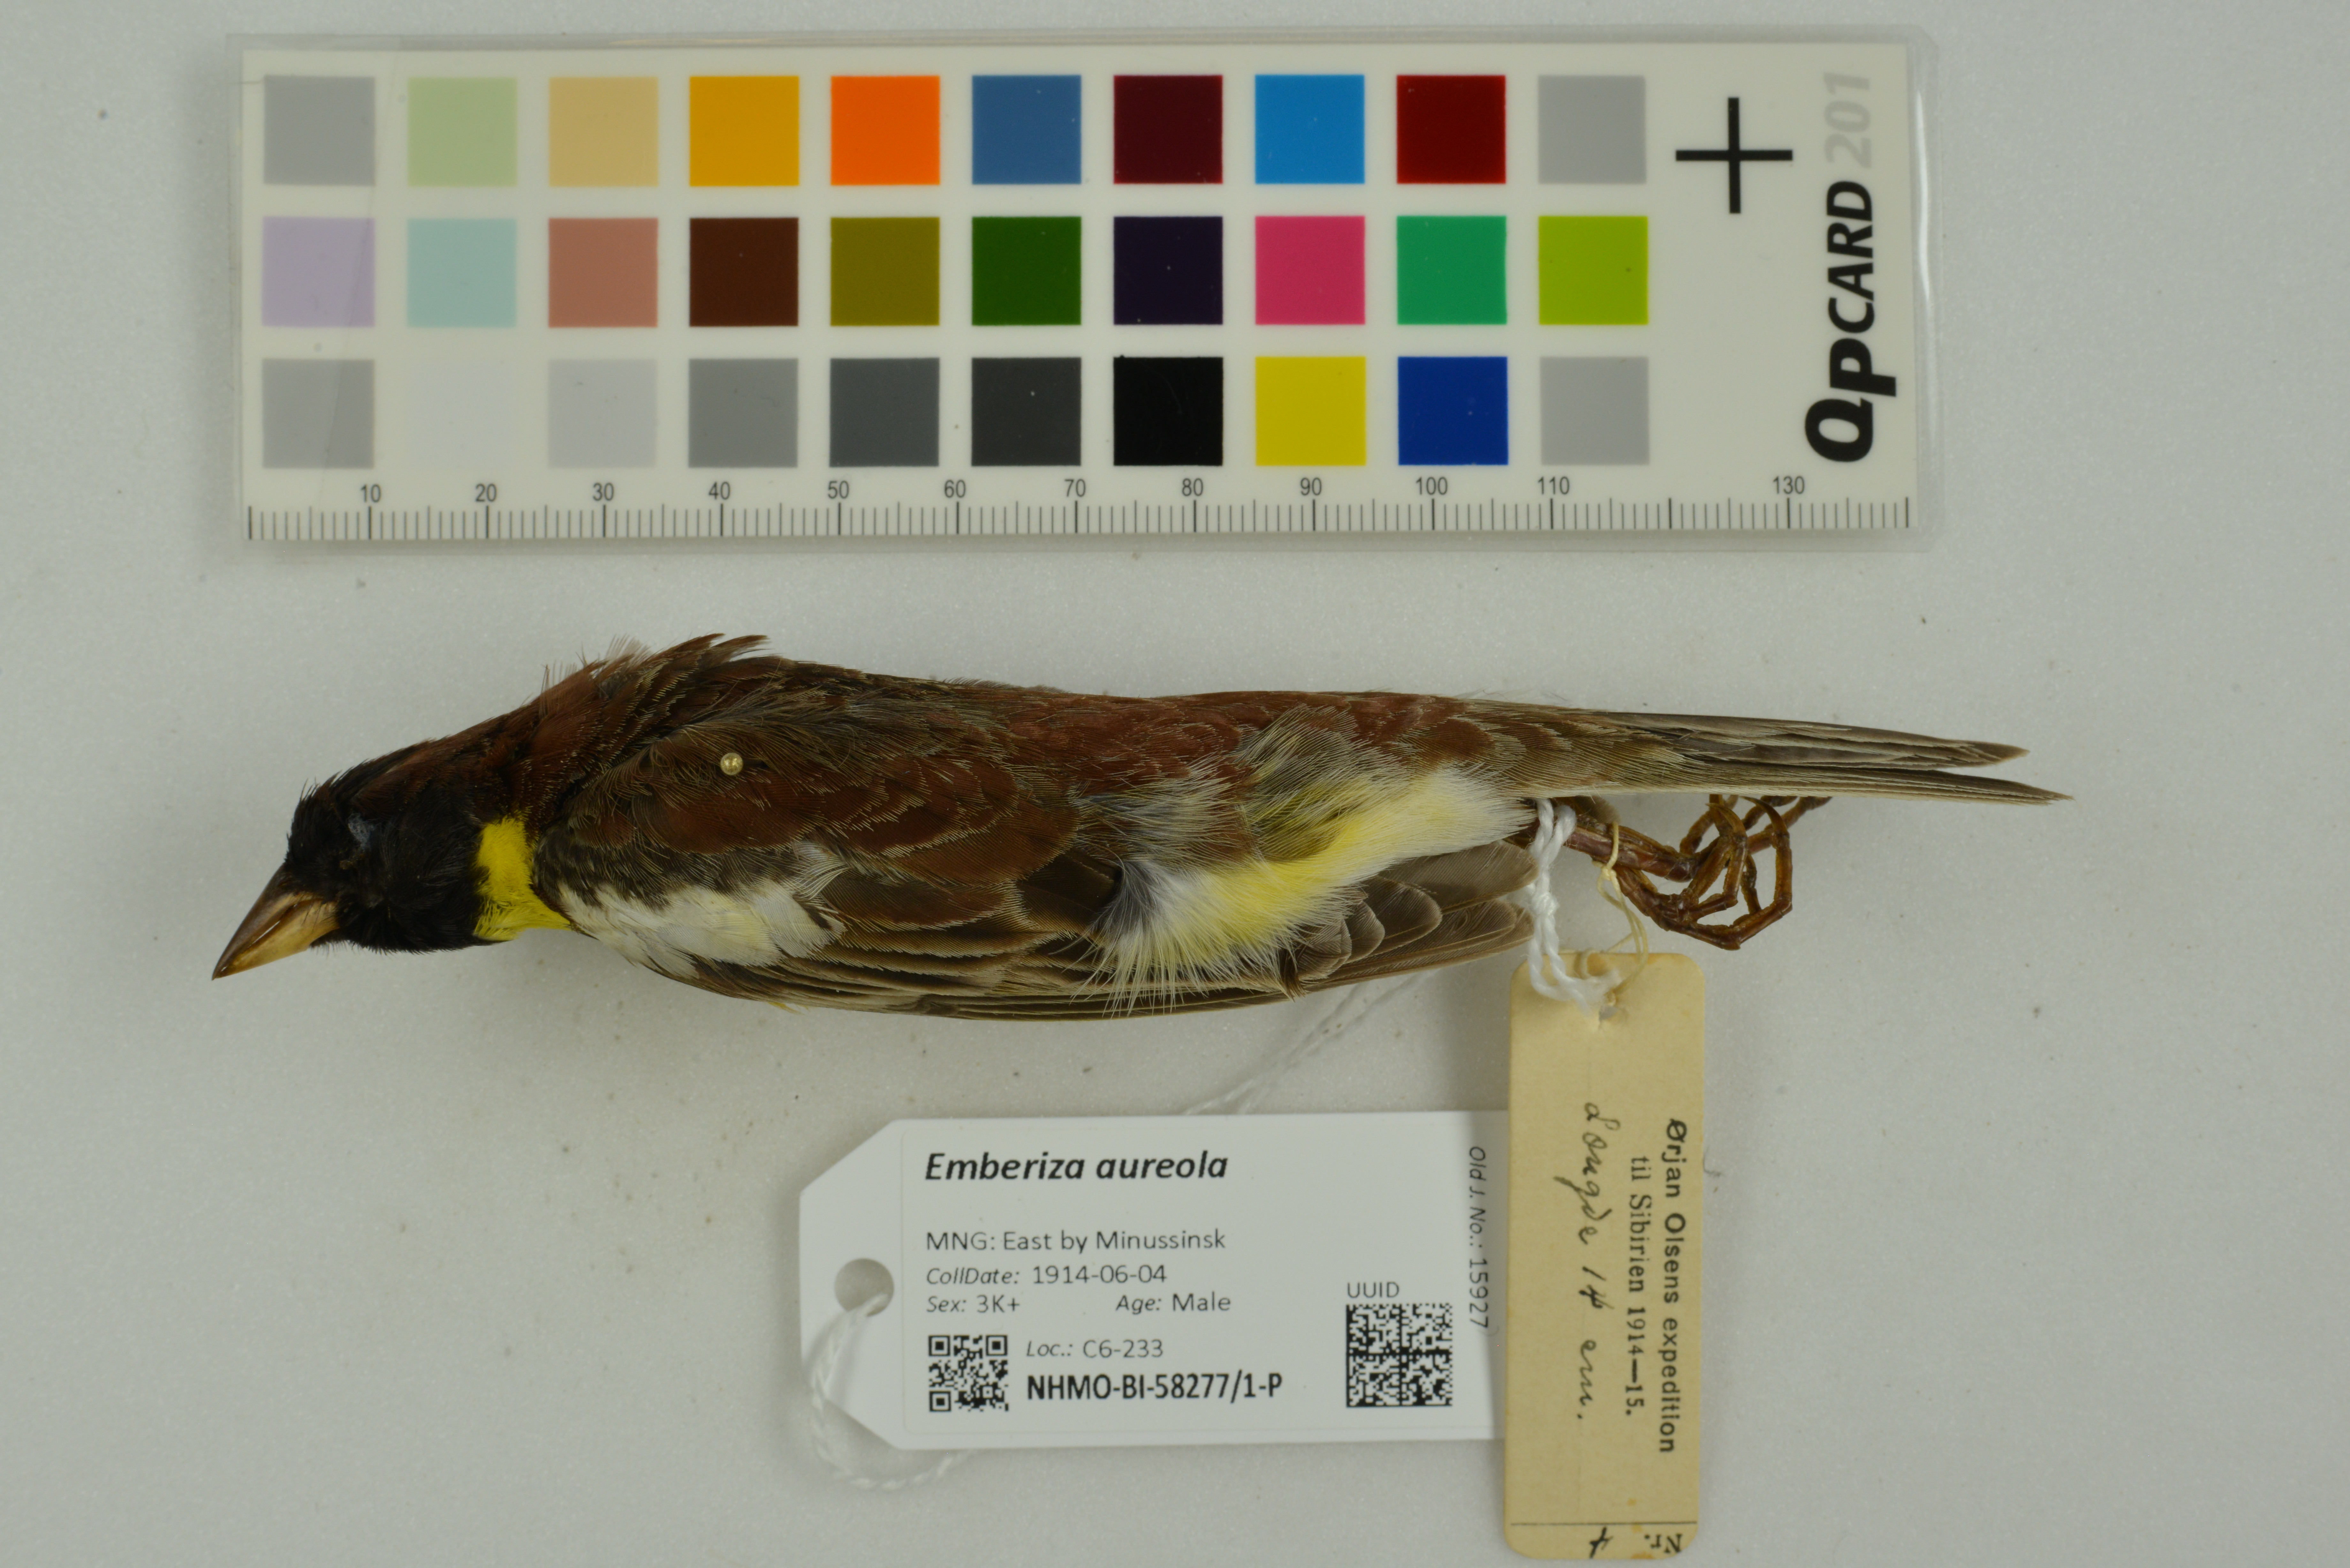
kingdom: Animalia
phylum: Chordata
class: Aves
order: Passeriformes
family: Emberizidae
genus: Emberiza
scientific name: Emberiza aureola
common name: Yellow-breasted bunting
